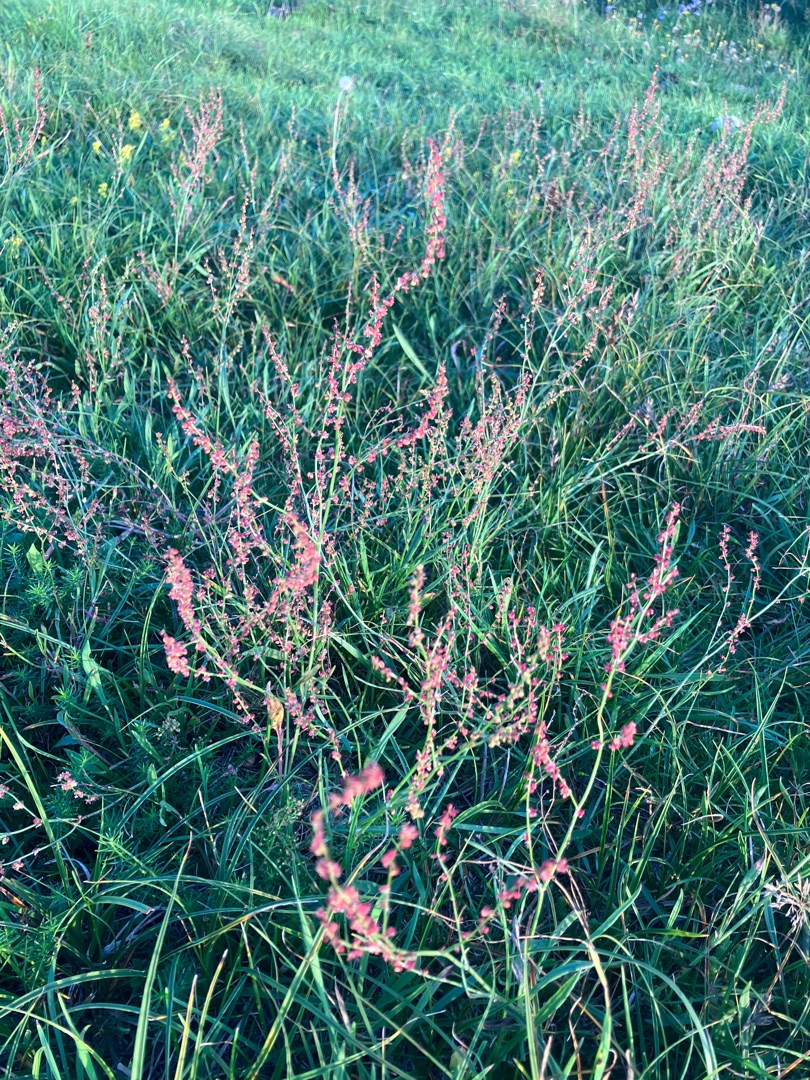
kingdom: Plantae
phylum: Tracheophyta
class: Magnoliopsida
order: Caryophyllales
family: Polygonaceae
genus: Rumex
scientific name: Rumex acetosella
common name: Rødknæ
